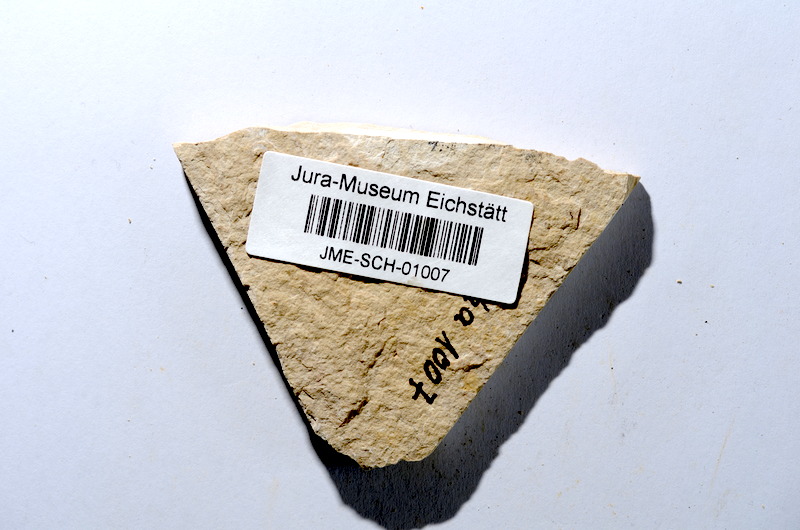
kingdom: Animalia
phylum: Chordata
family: Ascalaboidae
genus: Tharsis
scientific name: Tharsis dubius
